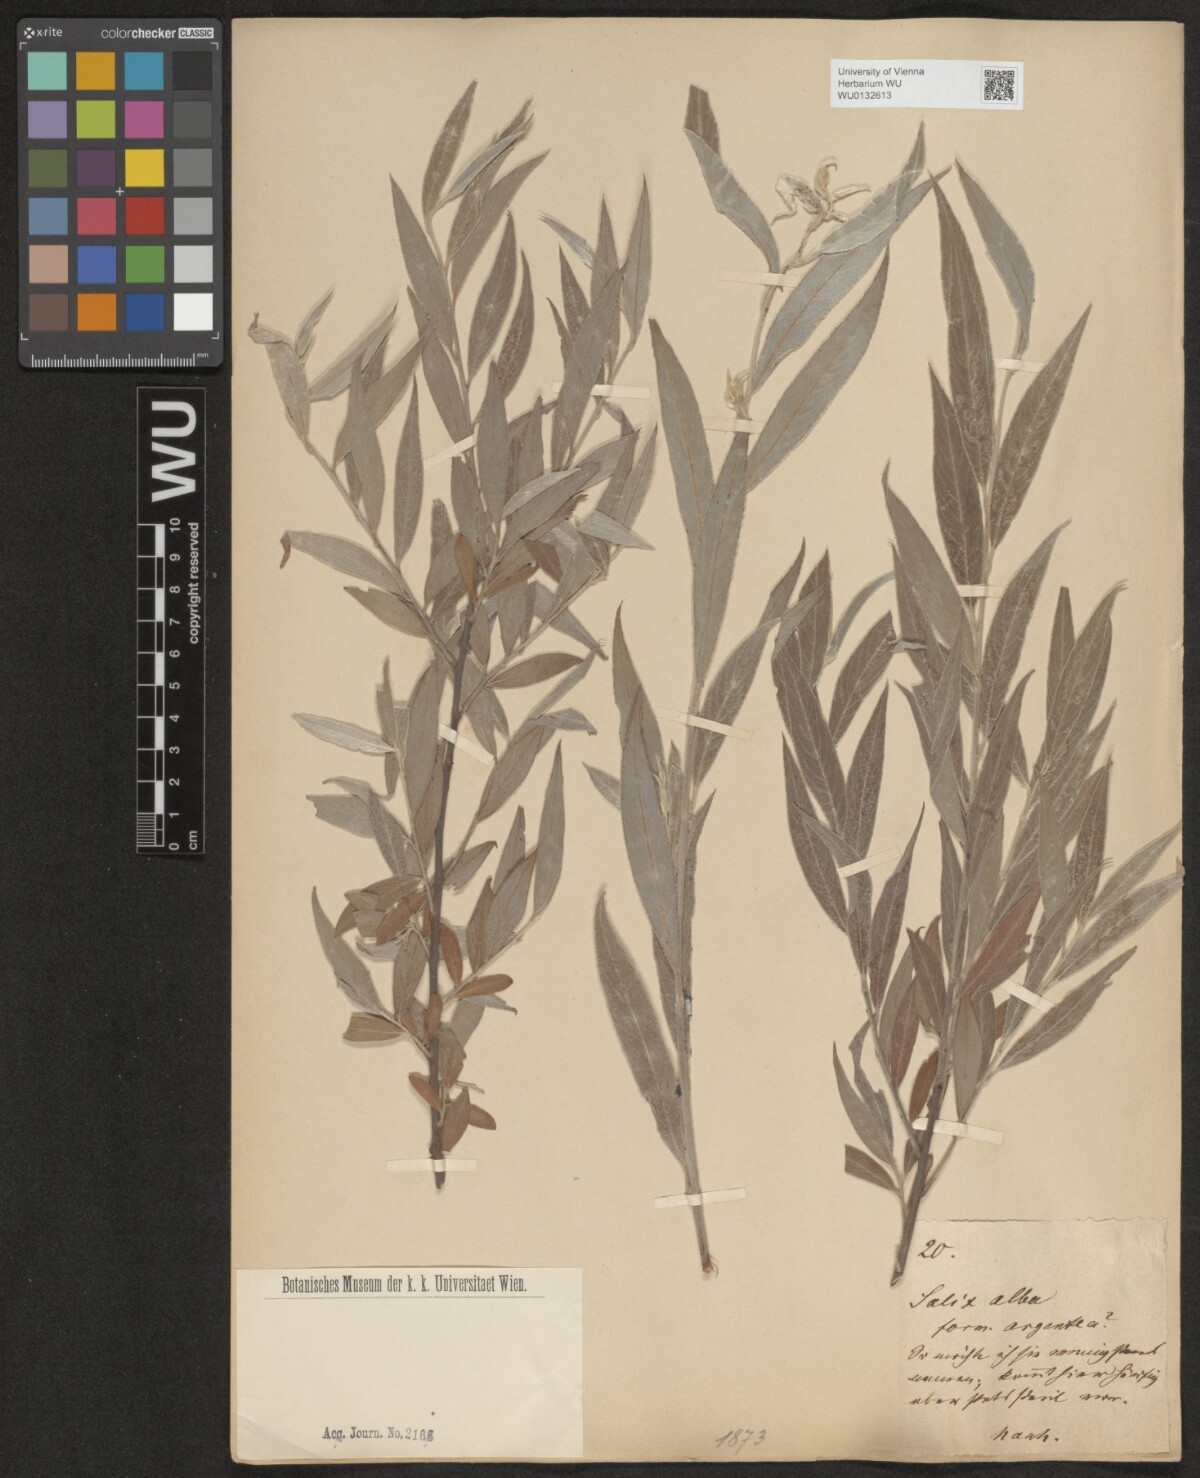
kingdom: Plantae
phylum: Tracheophyta
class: Magnoliopsida
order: Malpighiales
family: Salicaceae
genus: Salix
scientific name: Salix alba
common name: White willow
